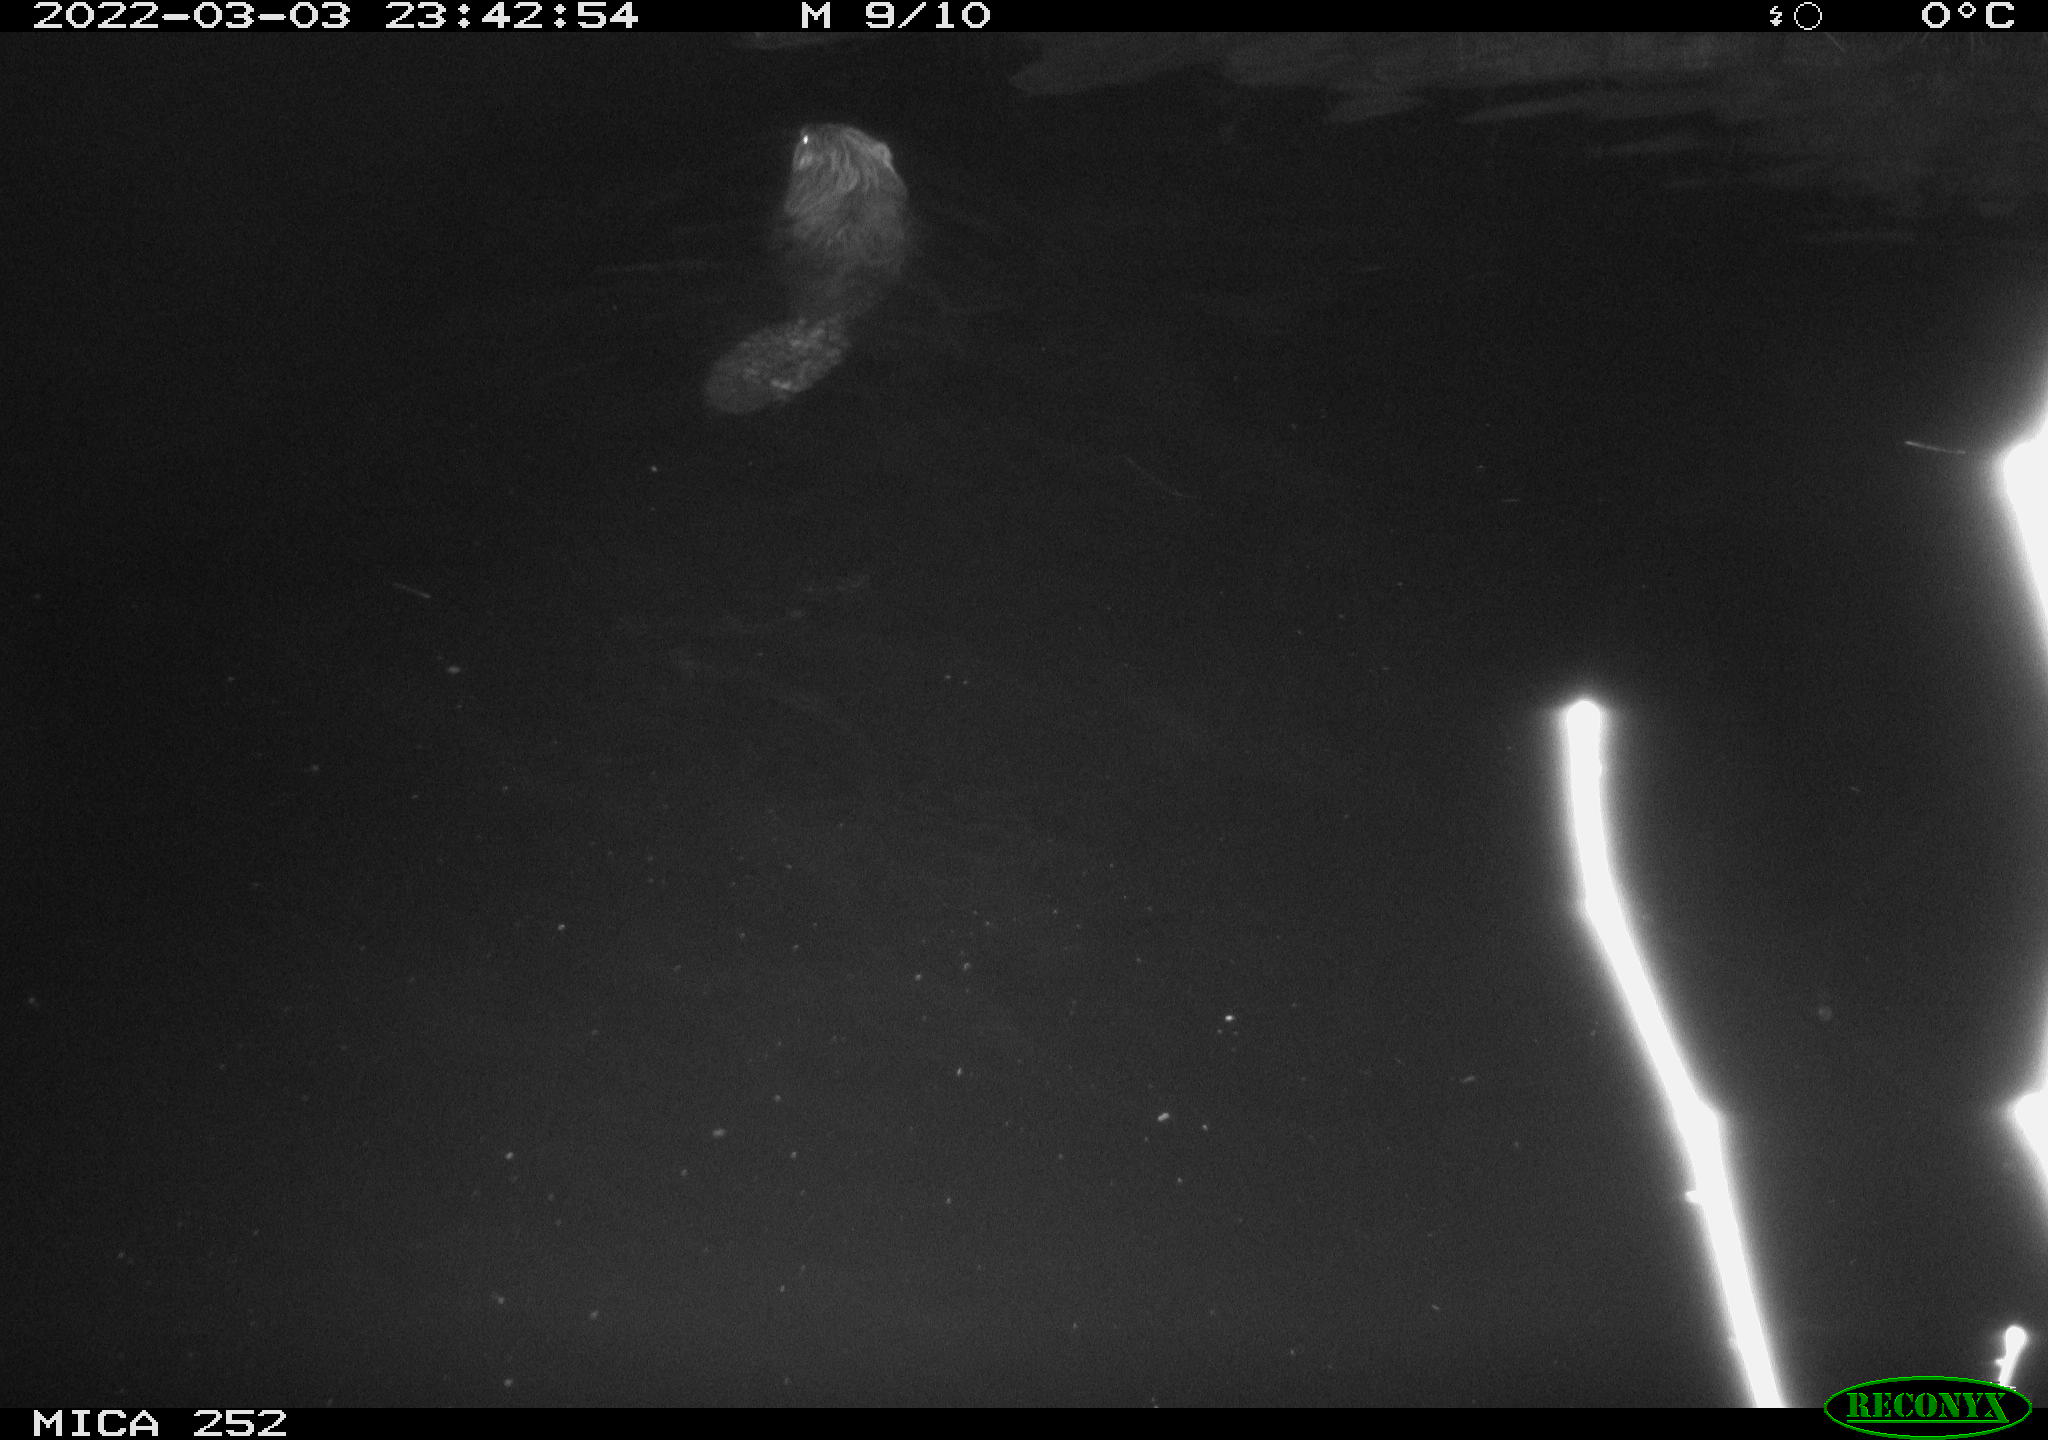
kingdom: Animalia
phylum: Chordata
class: Mammalia
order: Rodentia
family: Castoridae
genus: Castor
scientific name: Castor fiber
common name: Eurasian beaver
